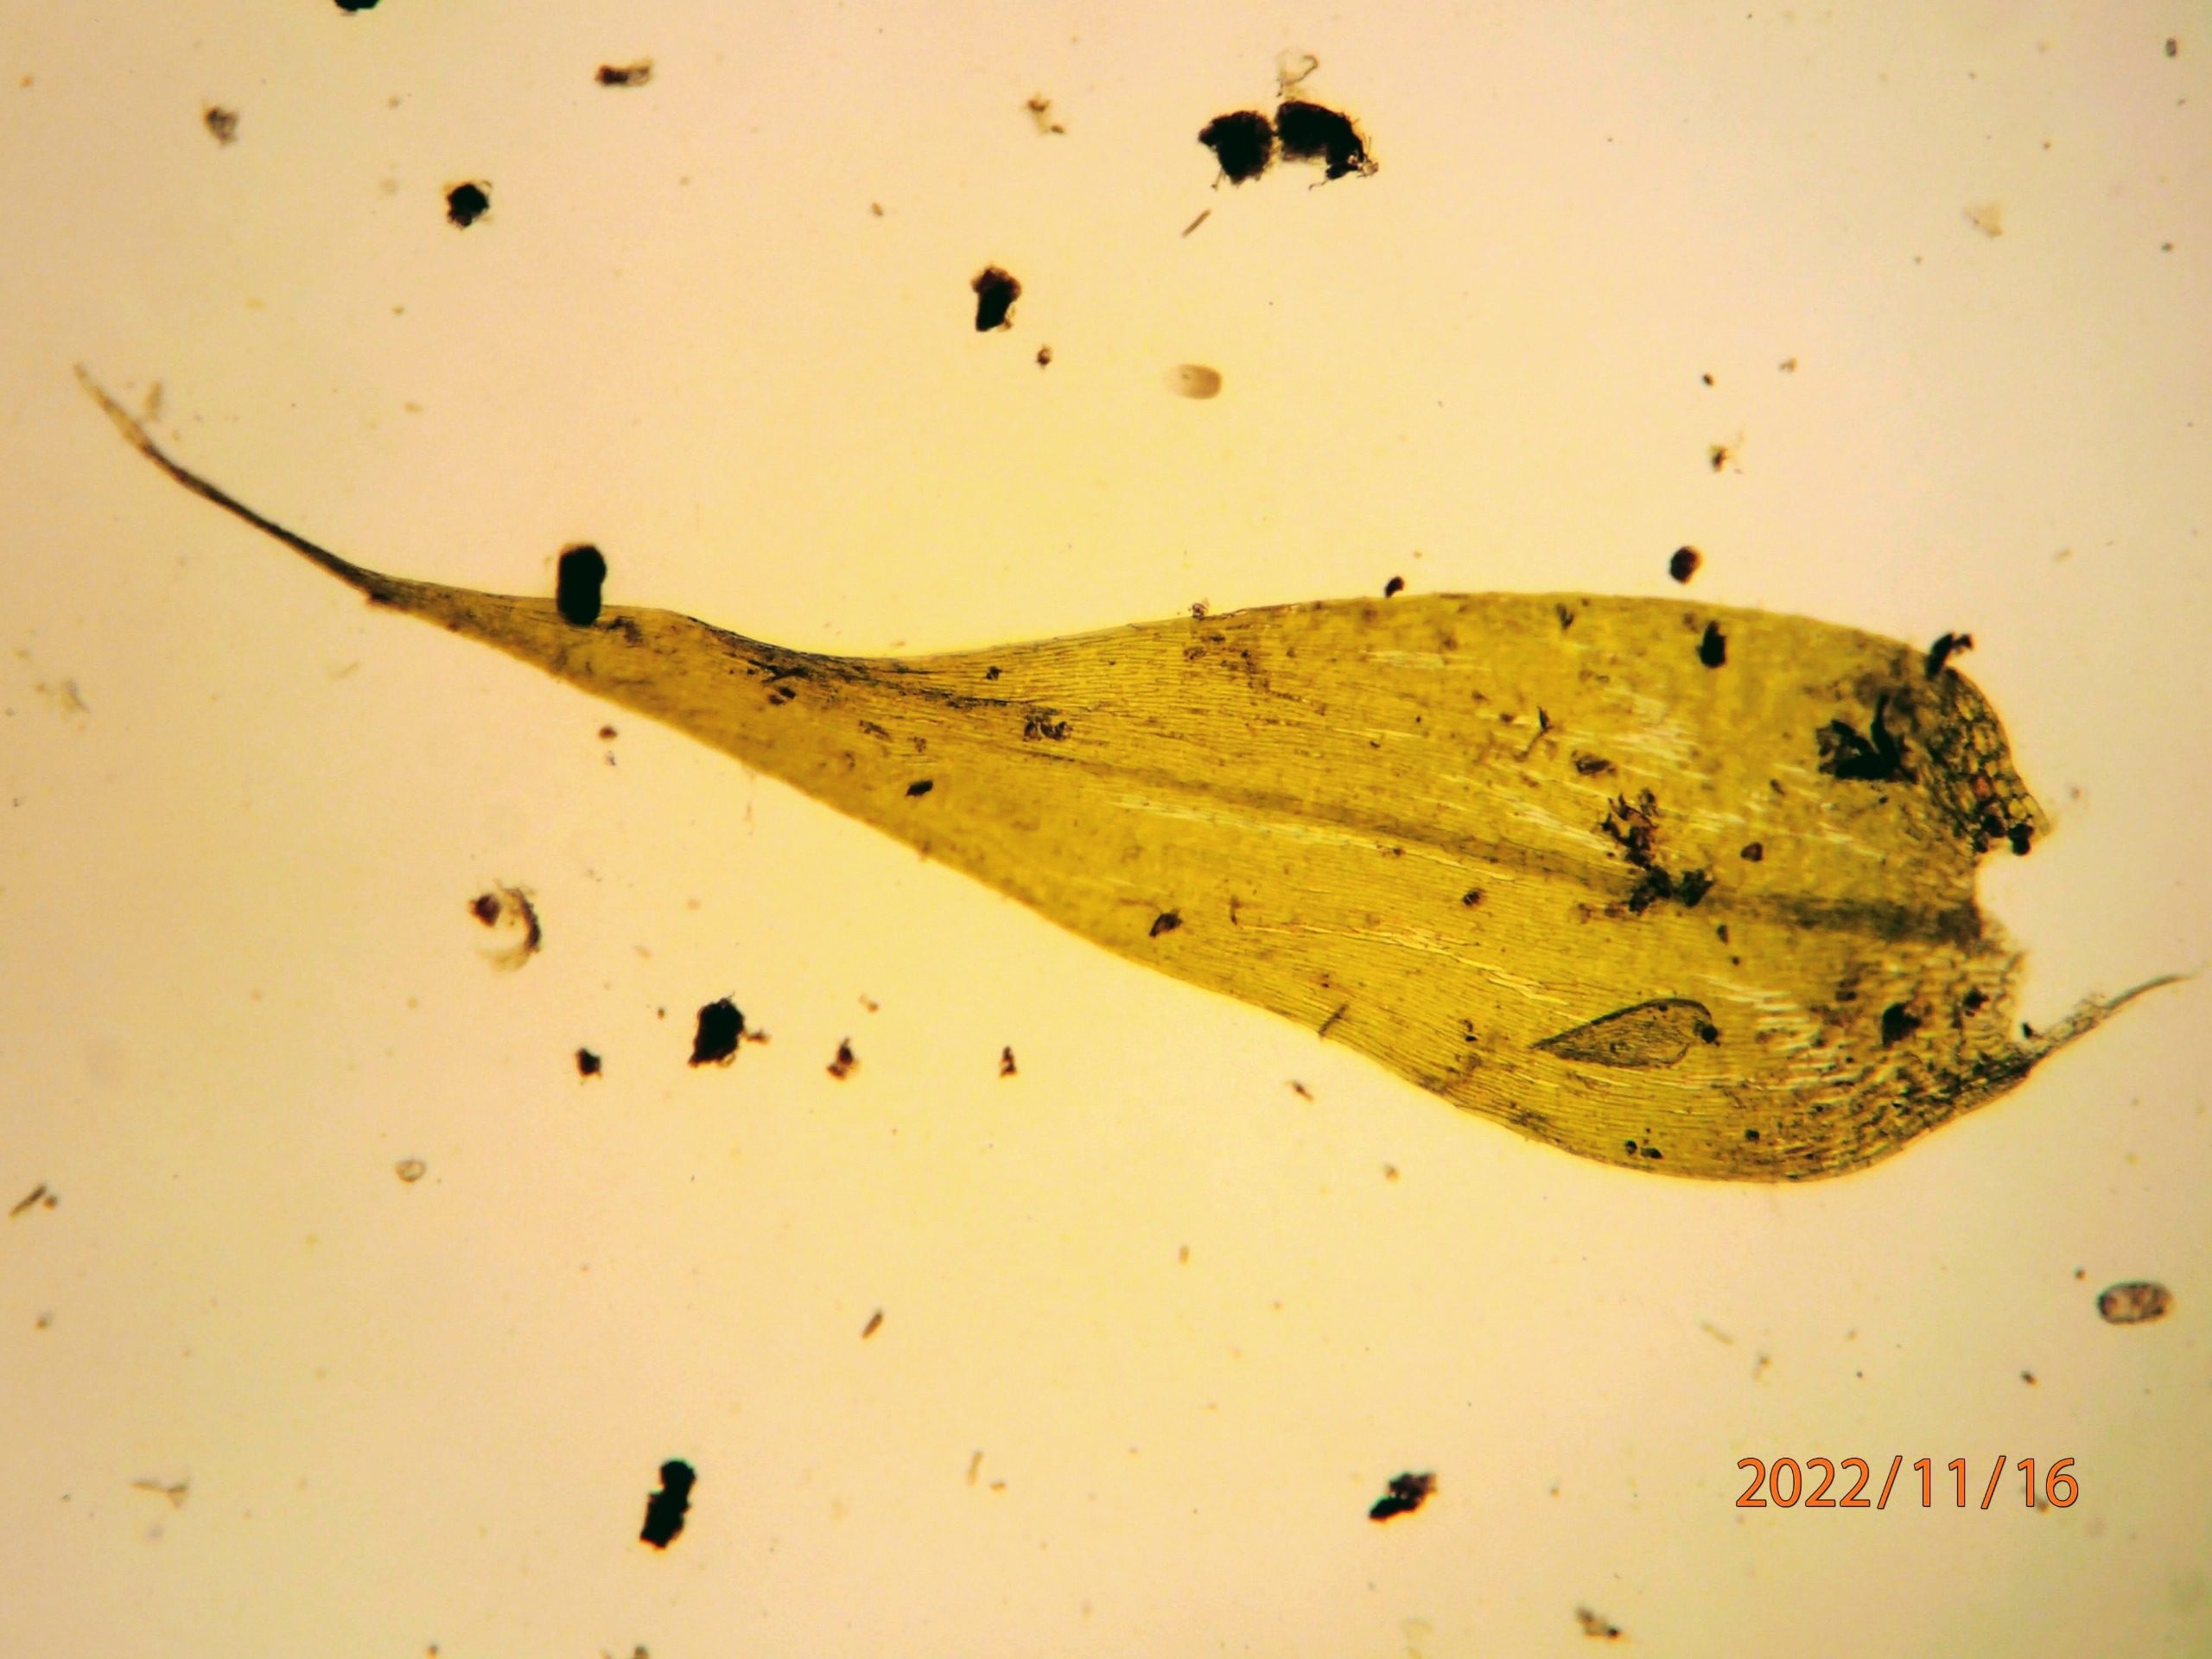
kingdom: Plantae
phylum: Bryophyta
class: Bryopsida
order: Hypnales
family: Amblystegiaceae
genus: Leptodictyum
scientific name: Leptodictyum riparium
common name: Stor pytmos
